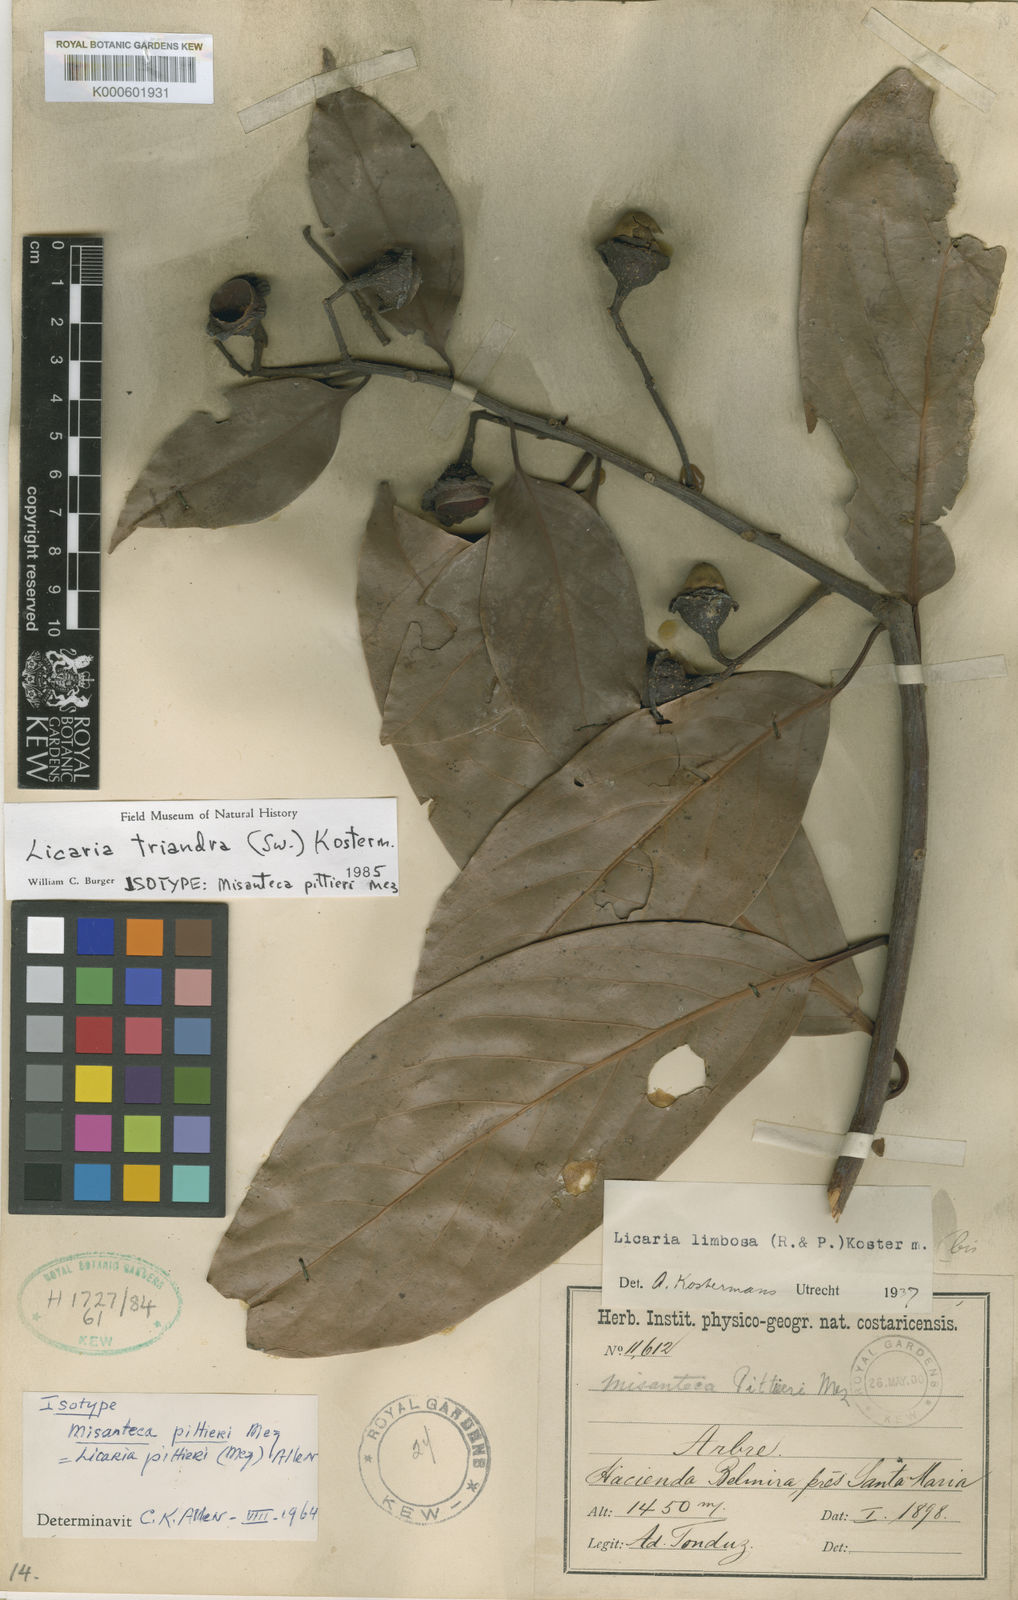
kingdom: Plantae
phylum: Tracheophyta
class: Magnoliopsida
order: Laurales
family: Lauraceae
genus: Licaria
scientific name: Licaria triandra
